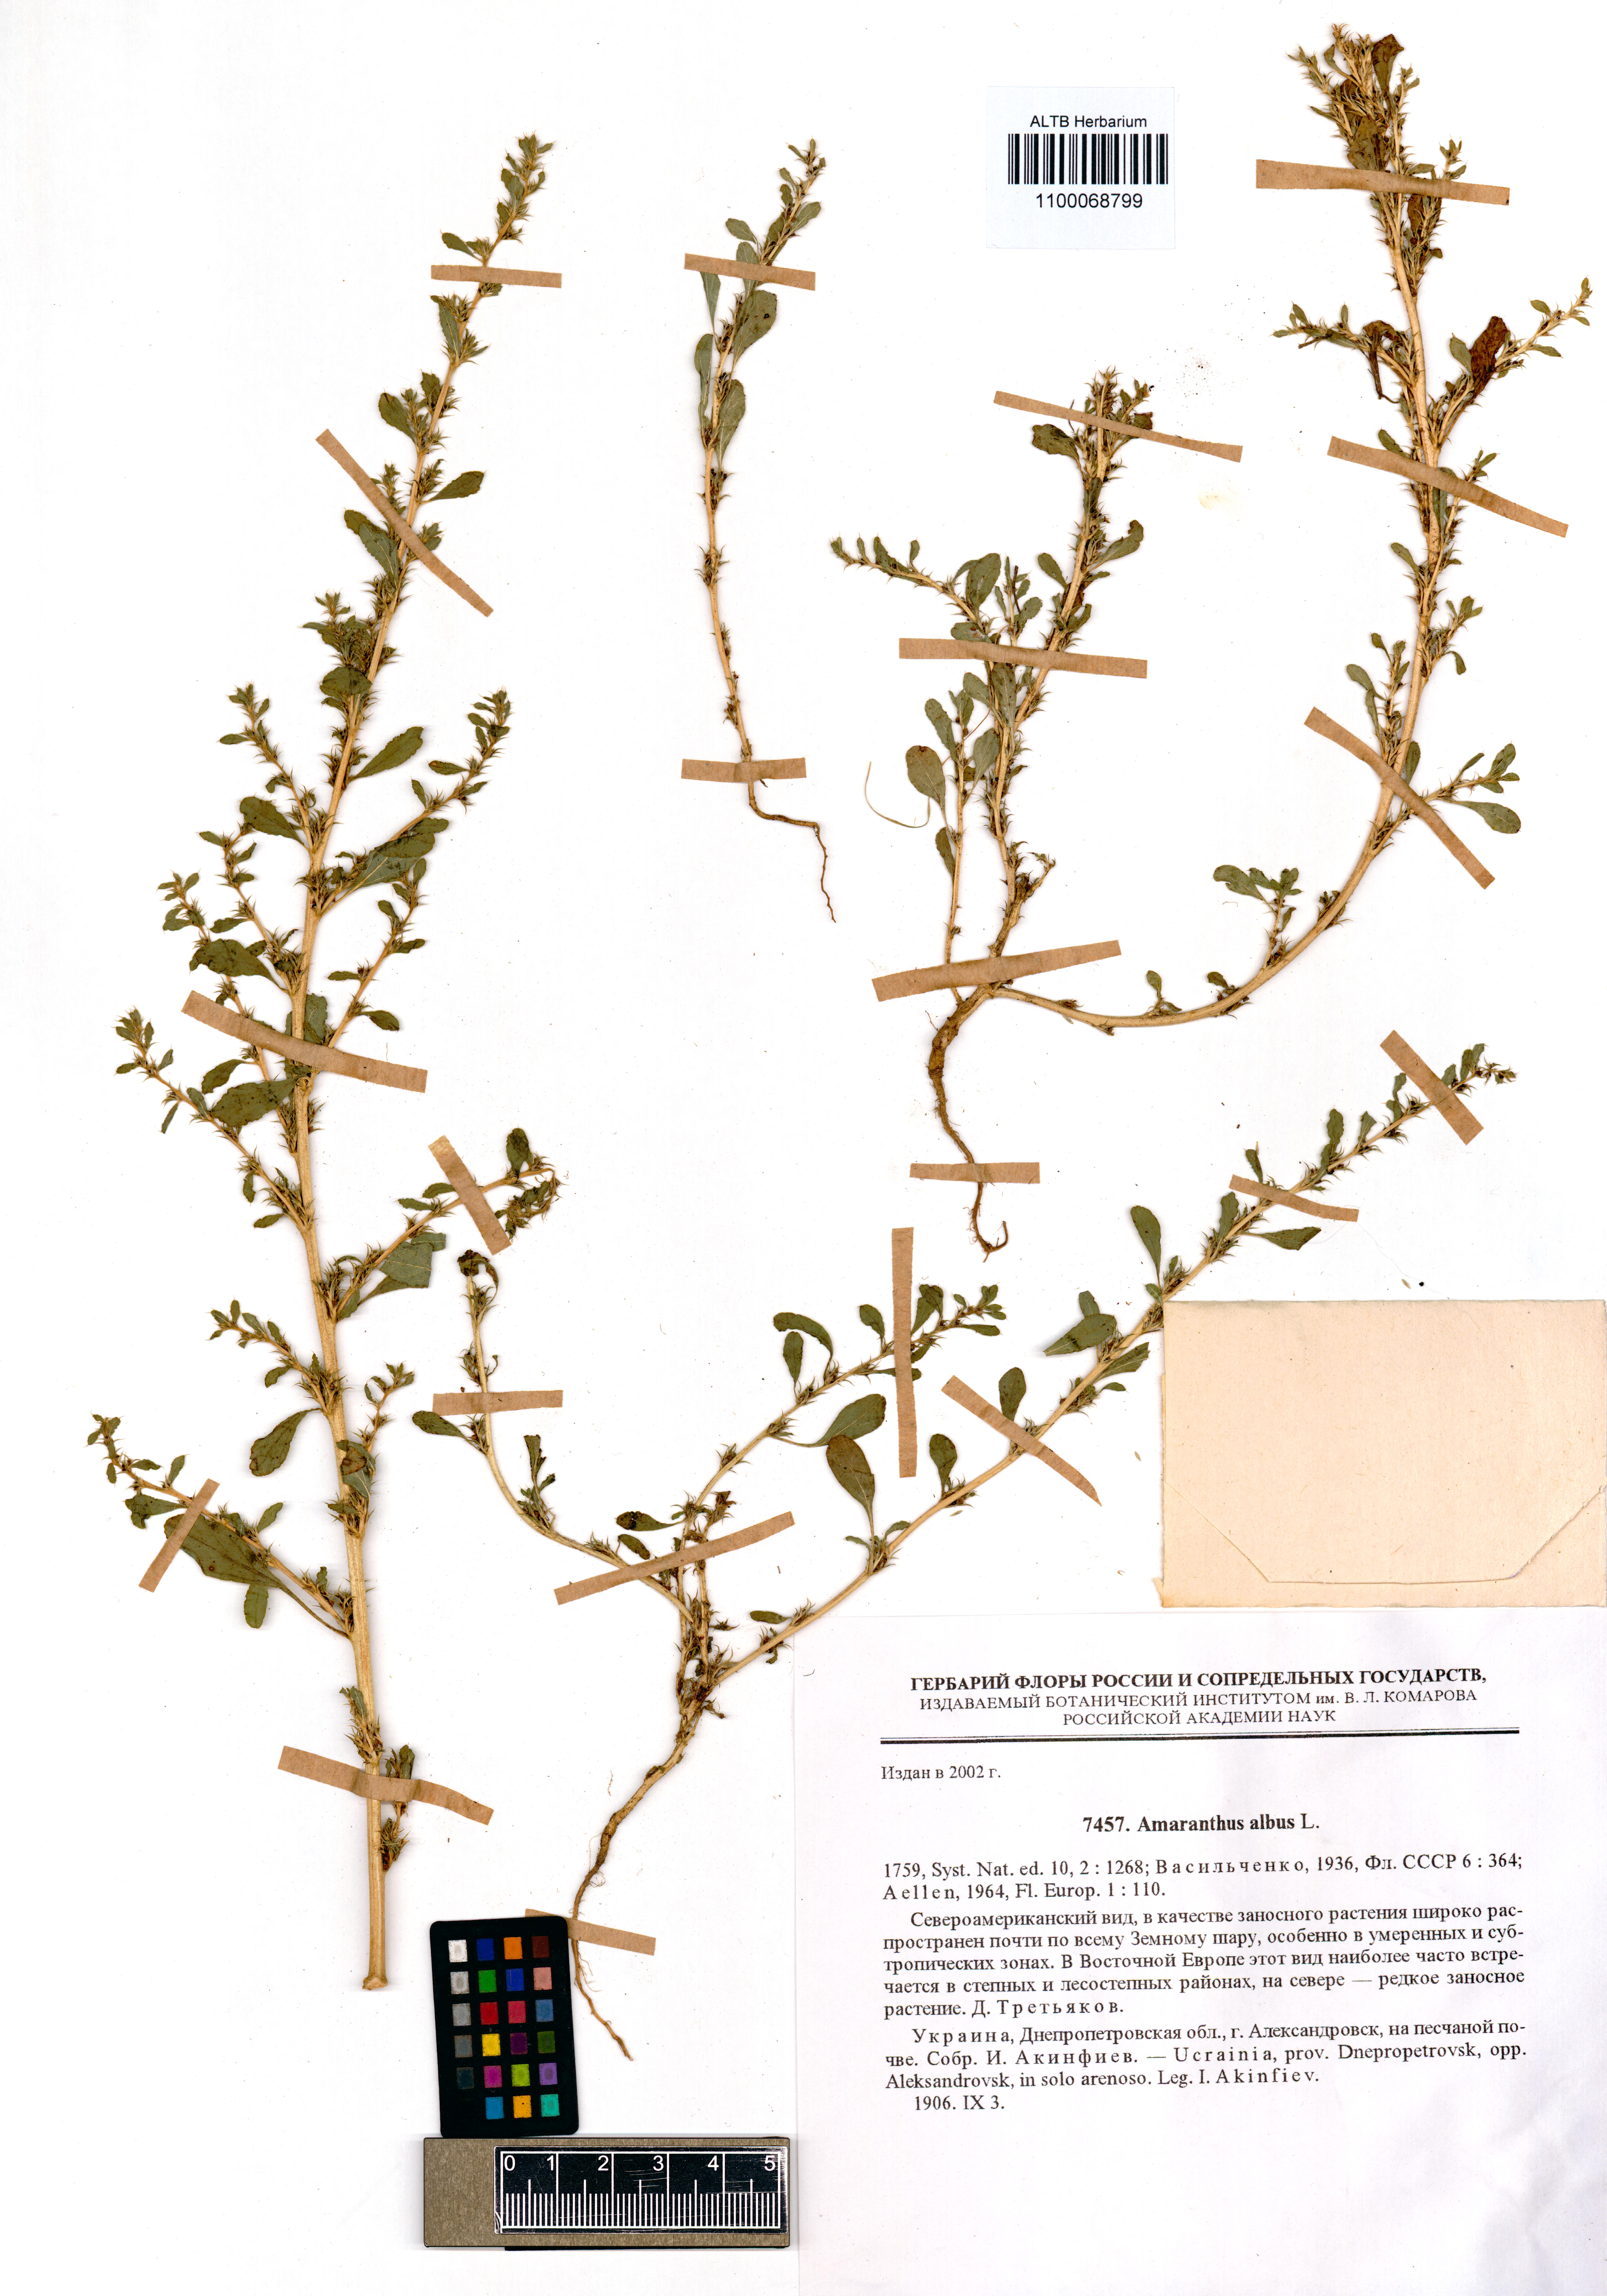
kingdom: Plantae
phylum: Tracheophyta
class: Magnoliopsida
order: Caryophyllales
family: Amaranthaceae
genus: Amaranthus
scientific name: Amaranthus albus
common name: White pigweed
